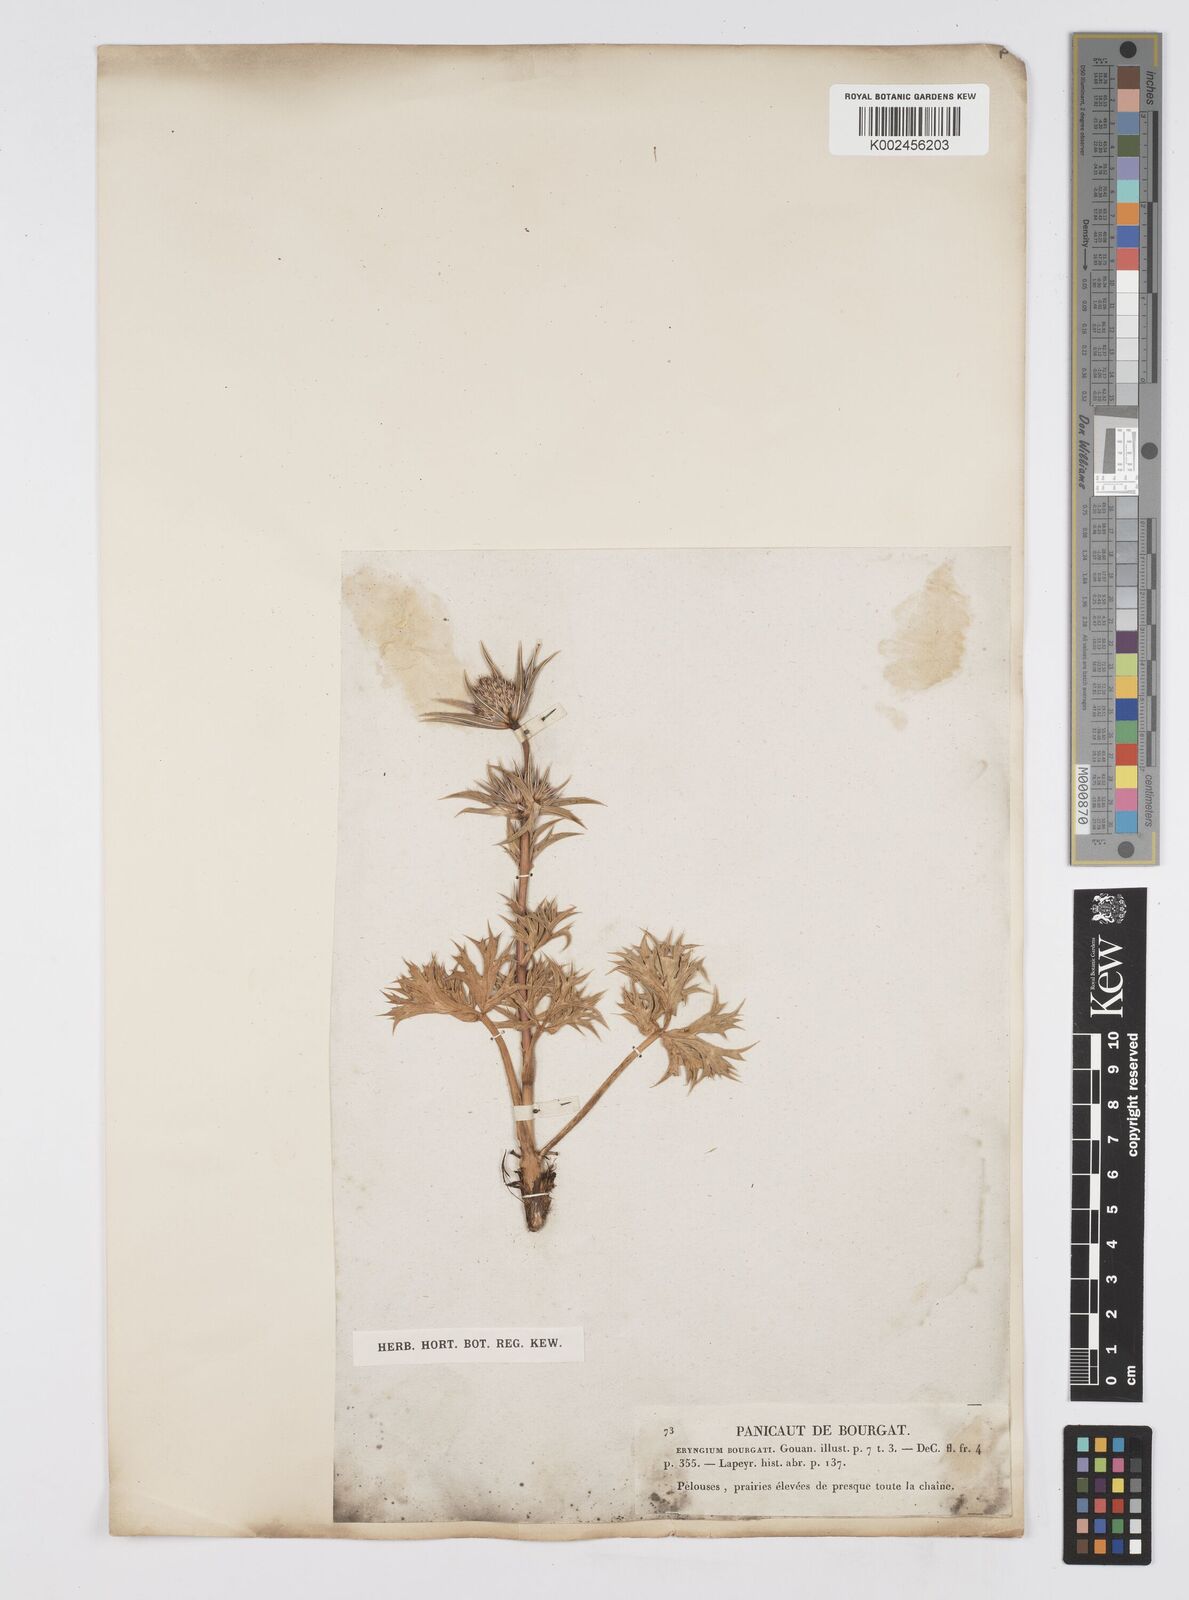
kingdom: Plantae
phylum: Tracheophyta
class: Magnoliopsida
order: Apiales
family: Apiaceae
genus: Eryngium
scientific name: Eryngium bourgatii
